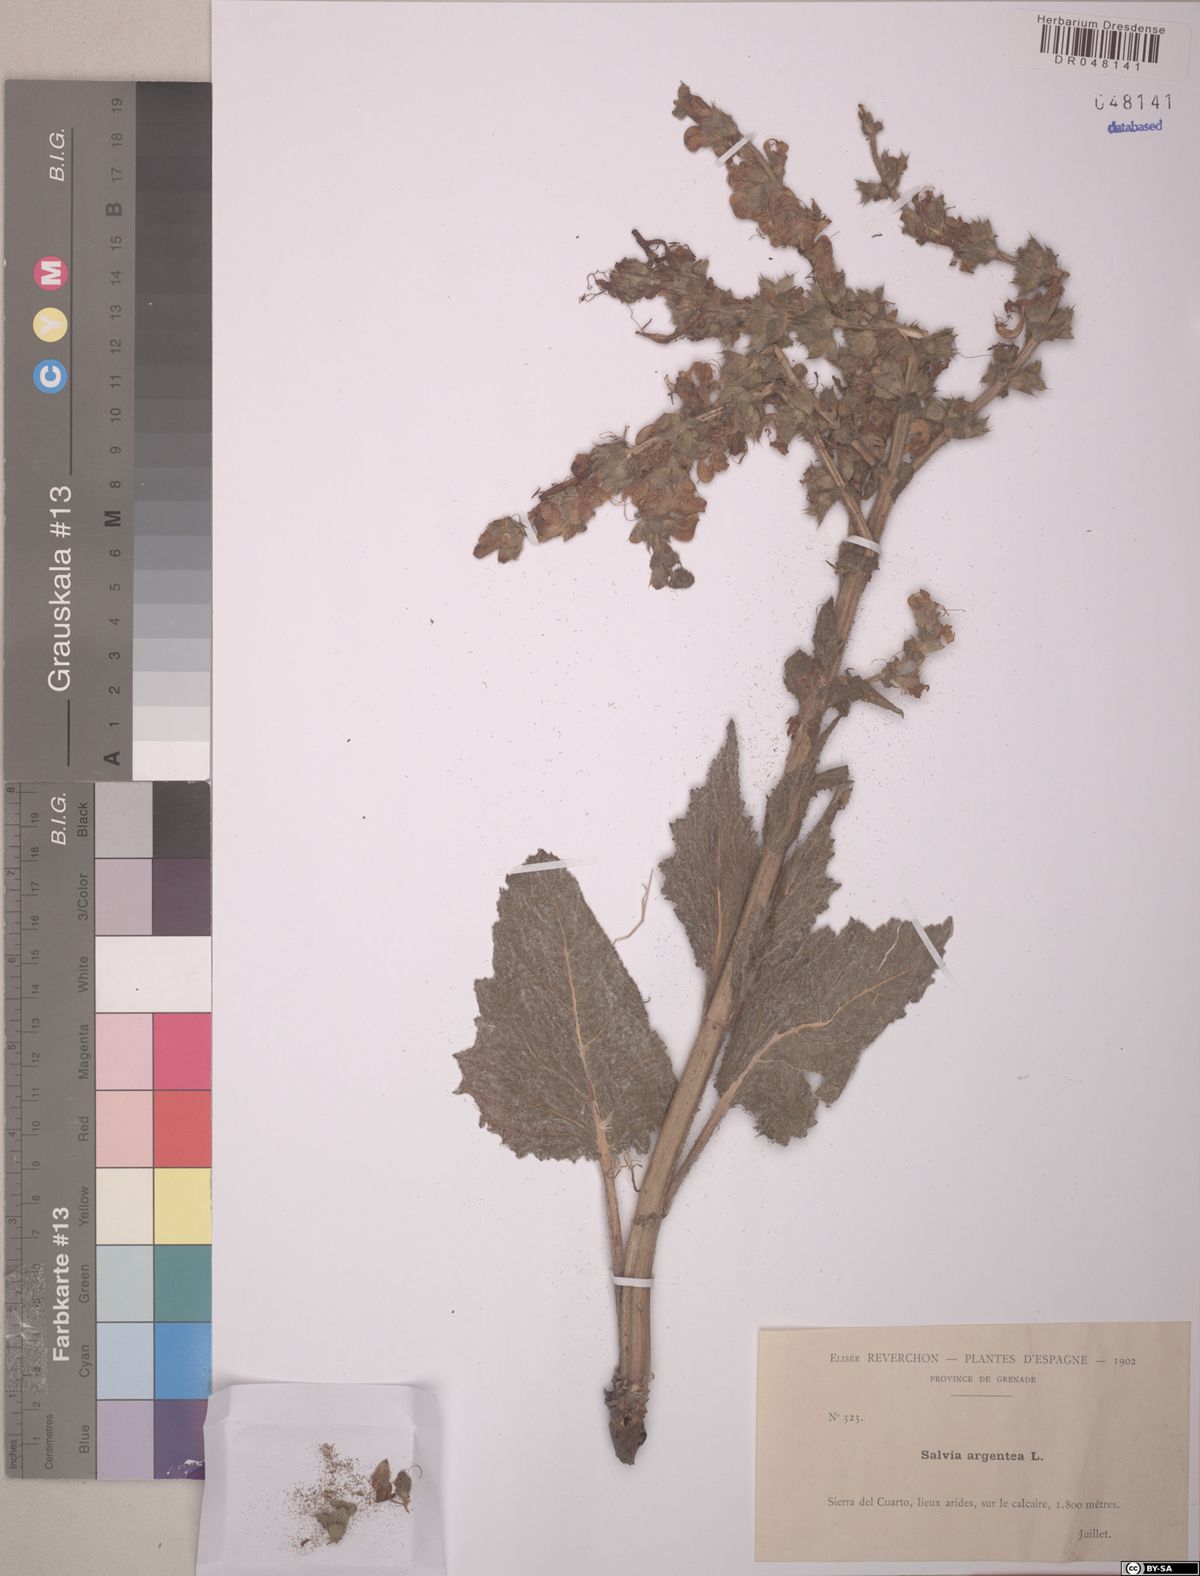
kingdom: Plantae
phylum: Tracheophyta
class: Magnoliopsida
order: Lamiales
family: Lamiaceae
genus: Salvia
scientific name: Salvia argentea
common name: Silver sage
